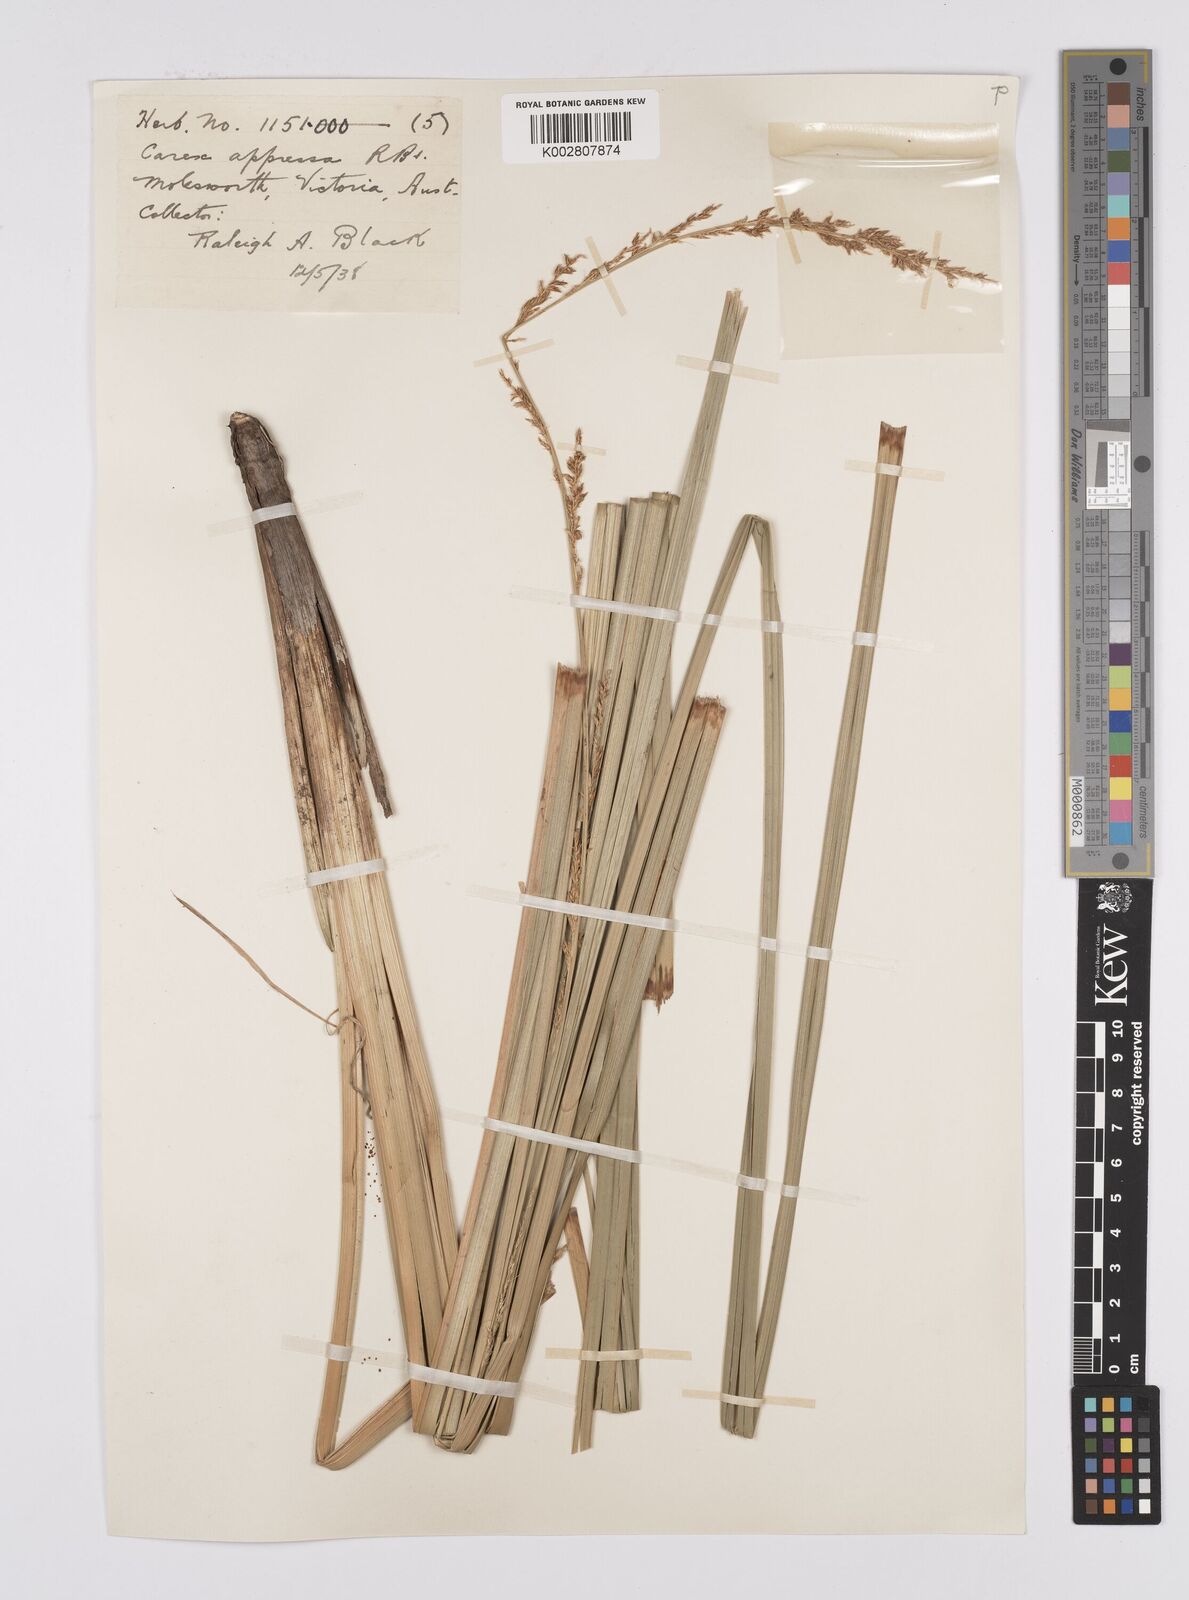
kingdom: Plantae
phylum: Tracheophyta
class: Liliopsida
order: Poales
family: Cyperaceae
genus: Carex
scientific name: Carex appressa
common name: Tussock sedge
